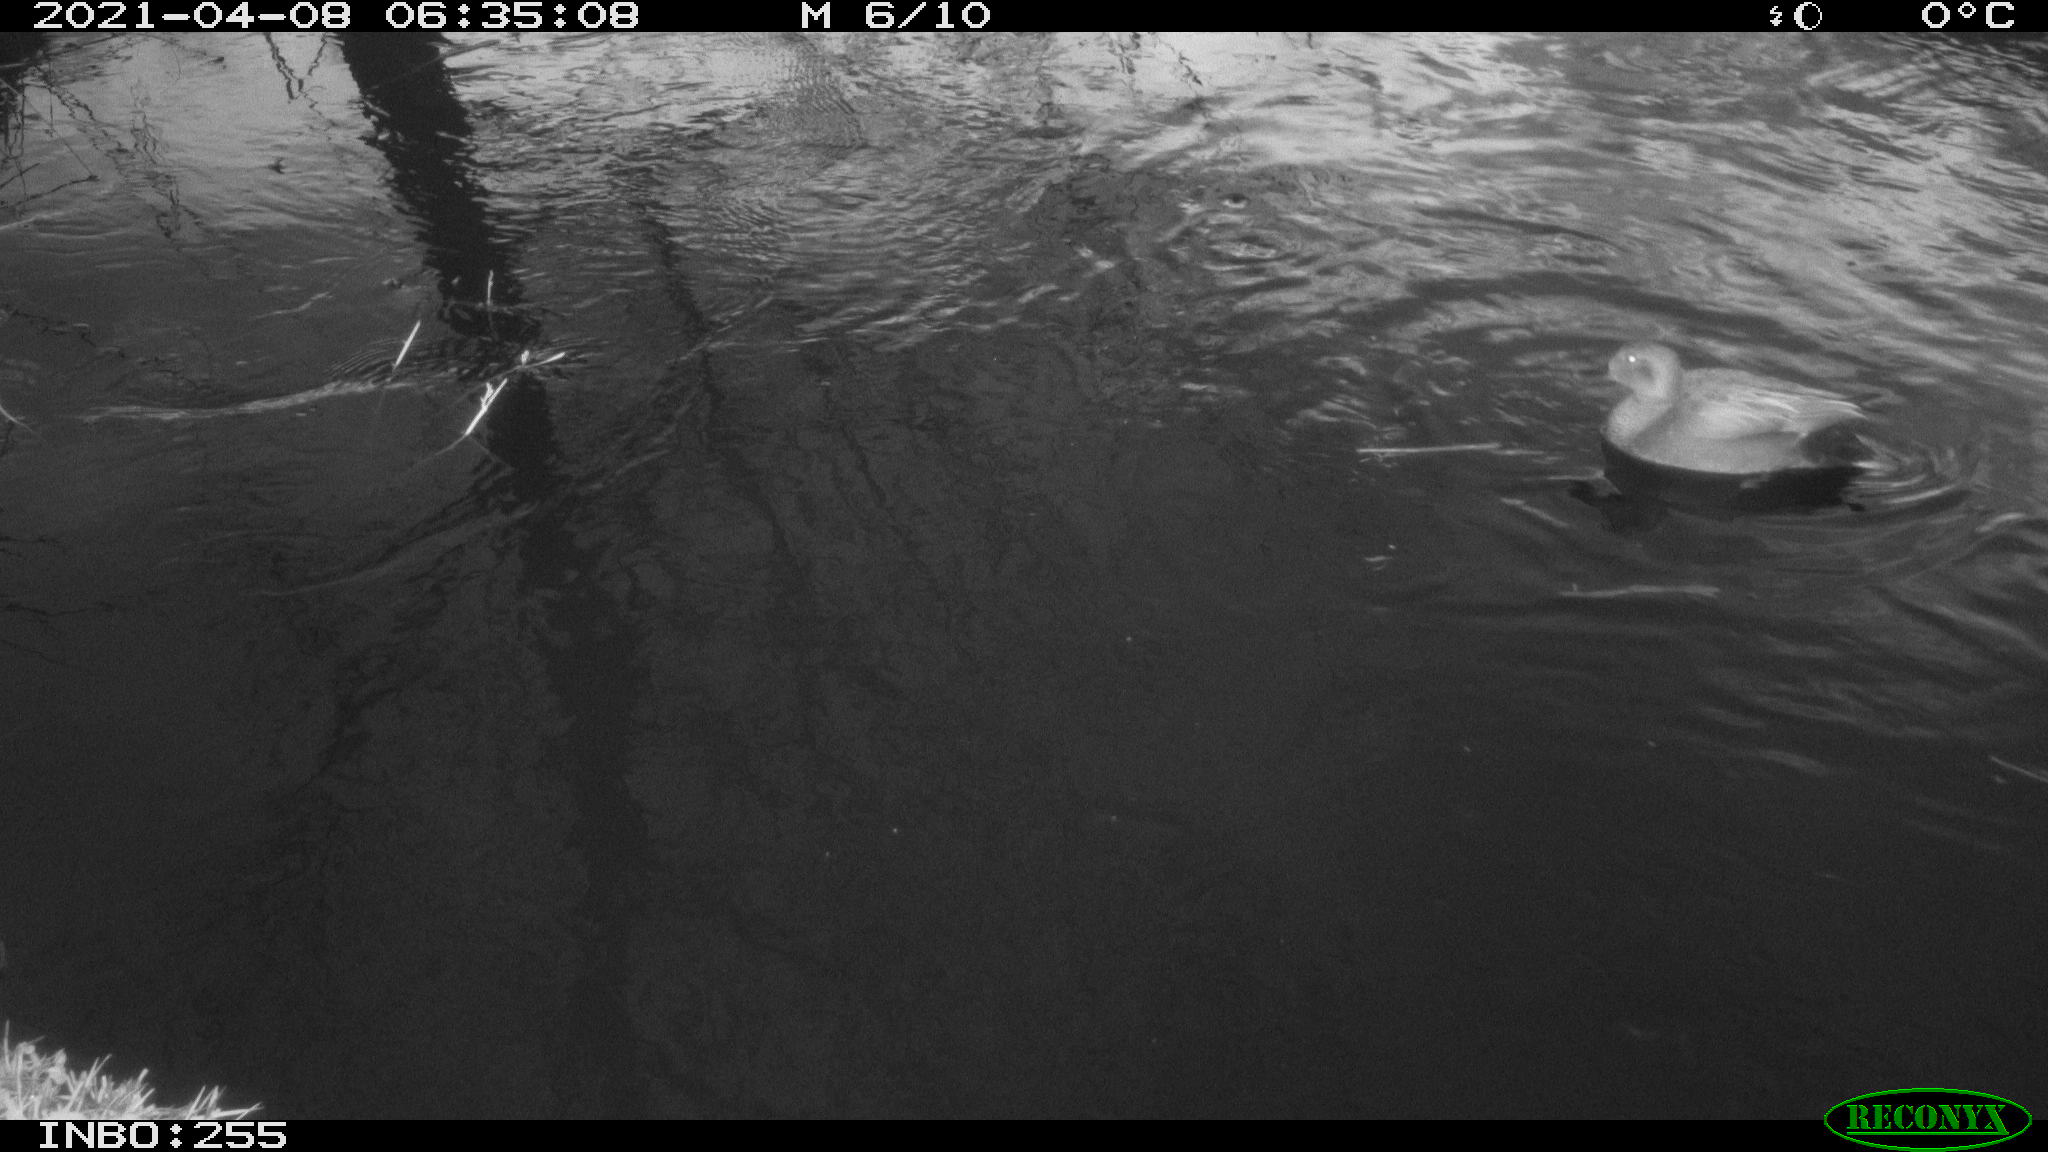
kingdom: Animalia
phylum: Chordata
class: Aves
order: Anseriformes
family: Anatidae
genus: Mareca
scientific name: Mareca strepera
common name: Gadwall
